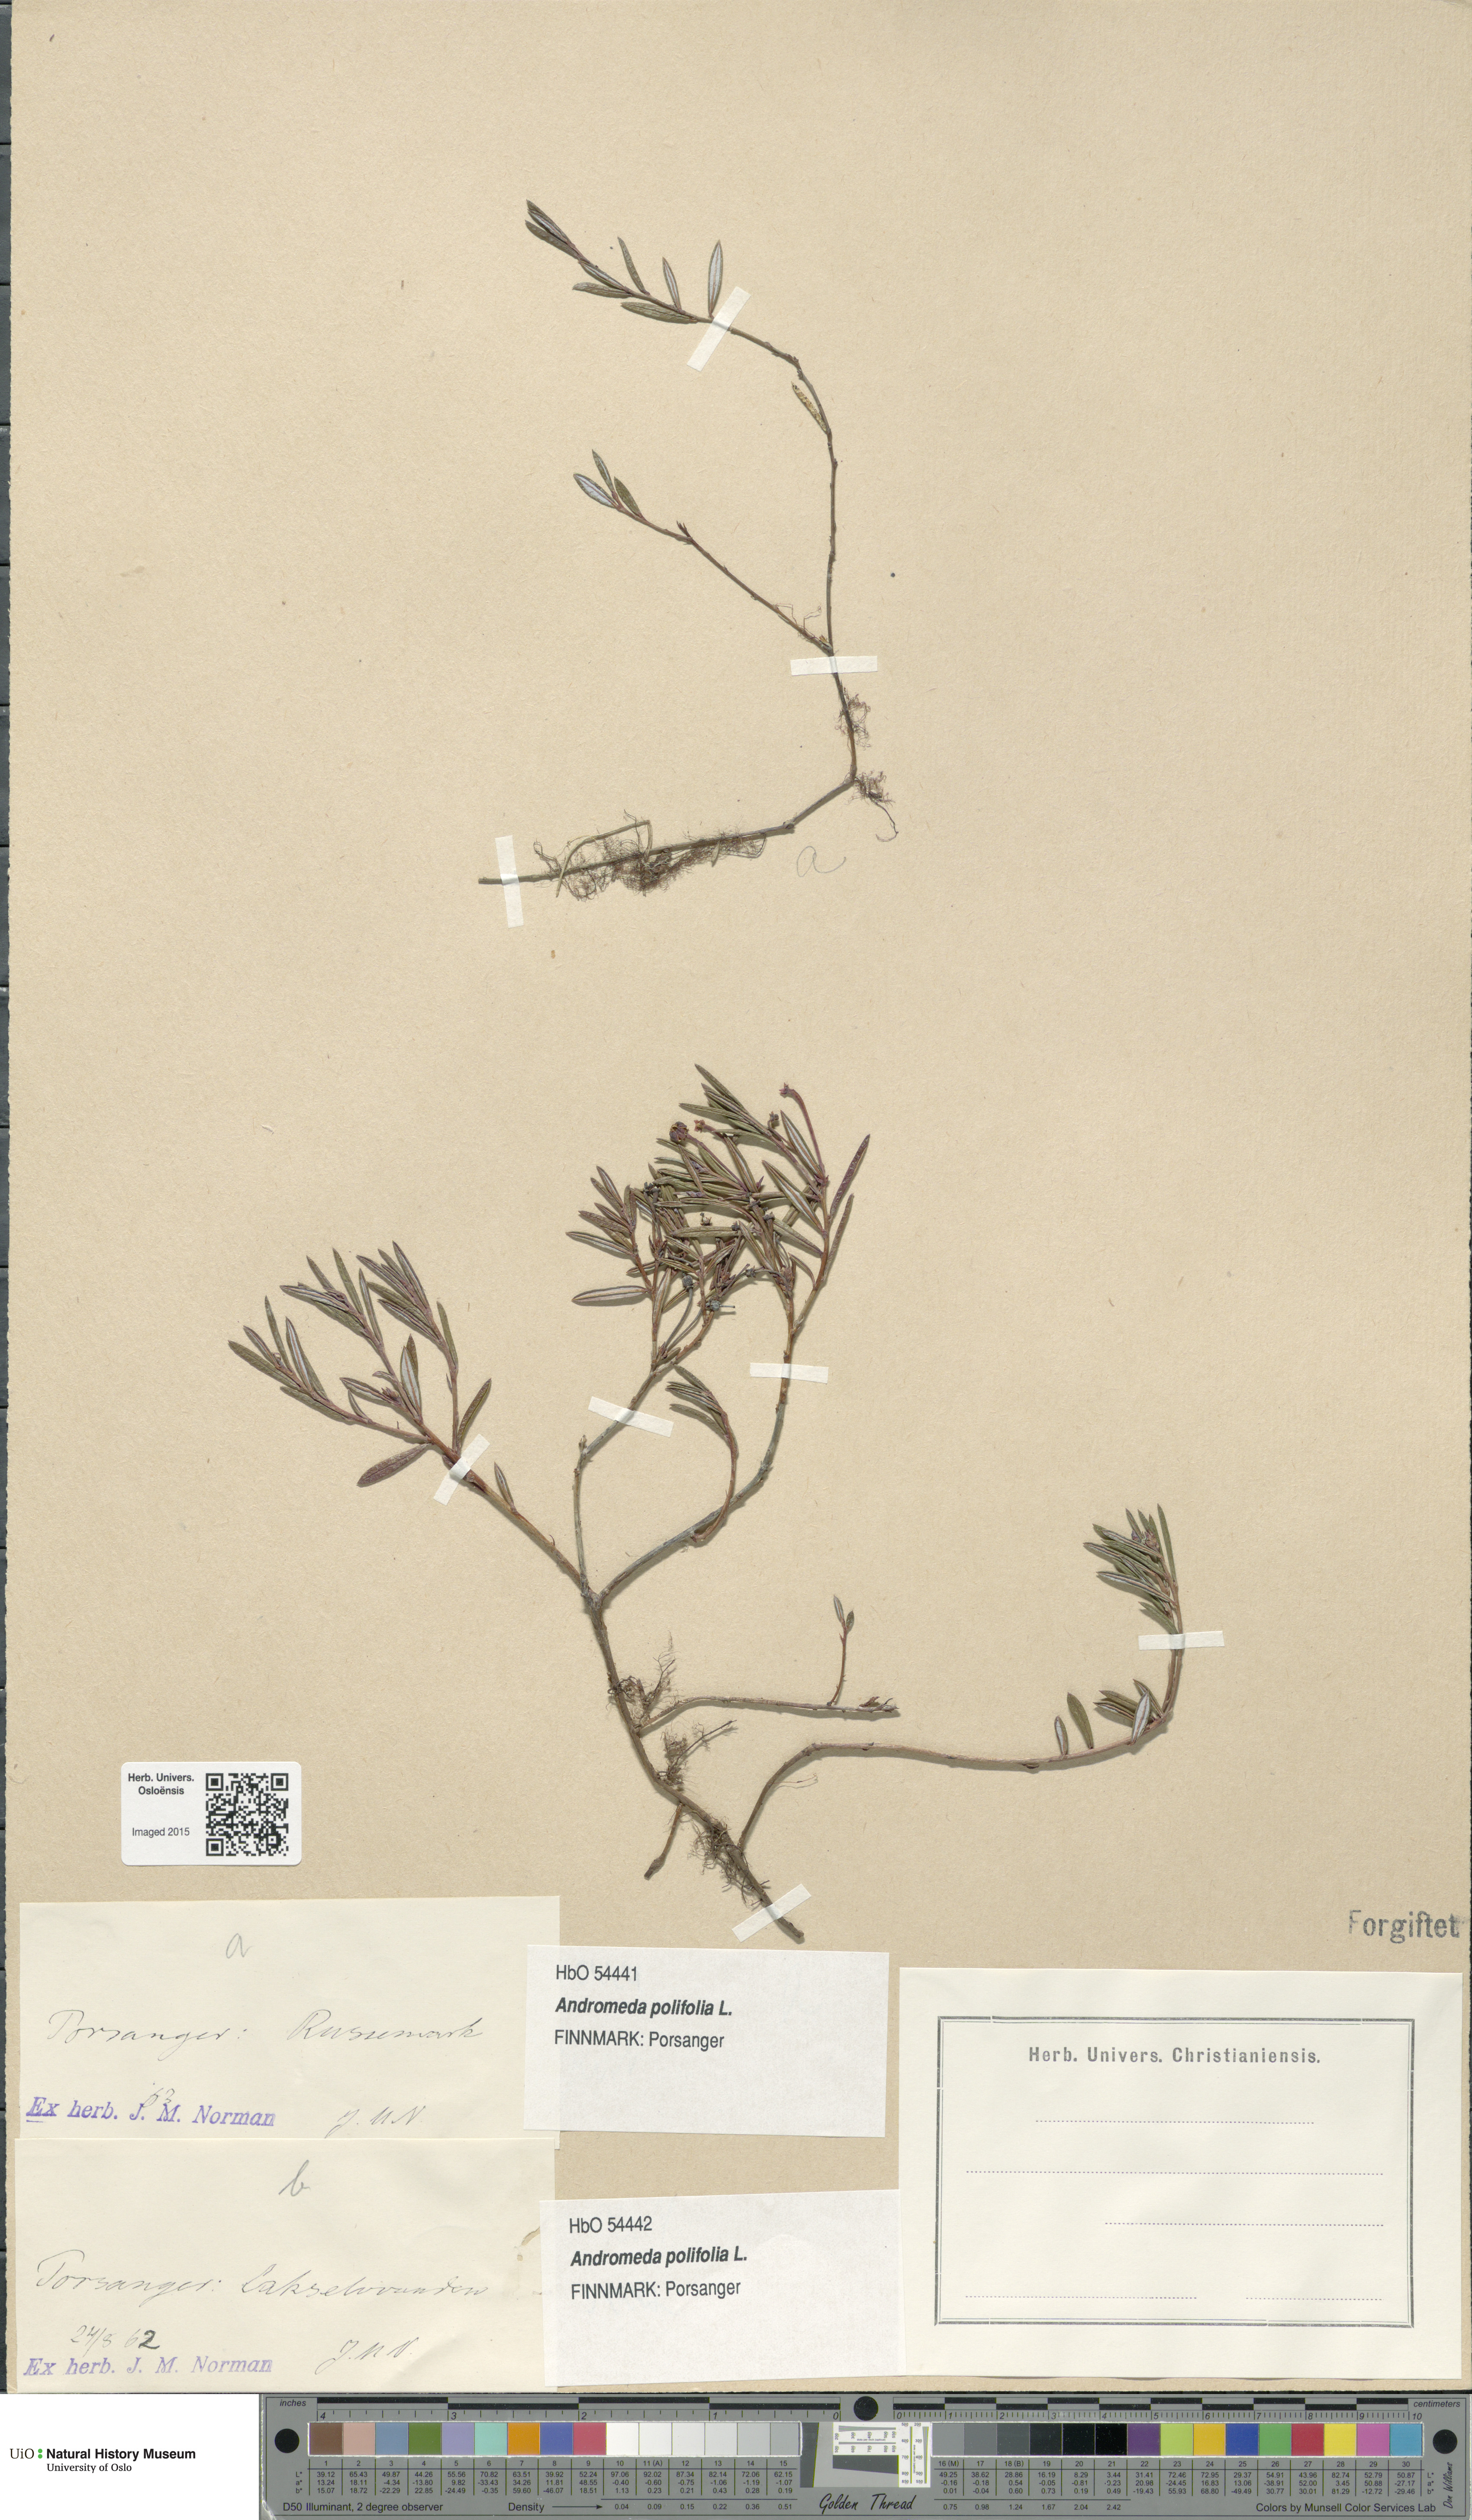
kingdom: Plantae
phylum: Tracheophyta
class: Magnoliopsida
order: Ericales
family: Ericaceae
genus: Andromeda
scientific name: Andromeda polifolia
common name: Bog-rosemary
